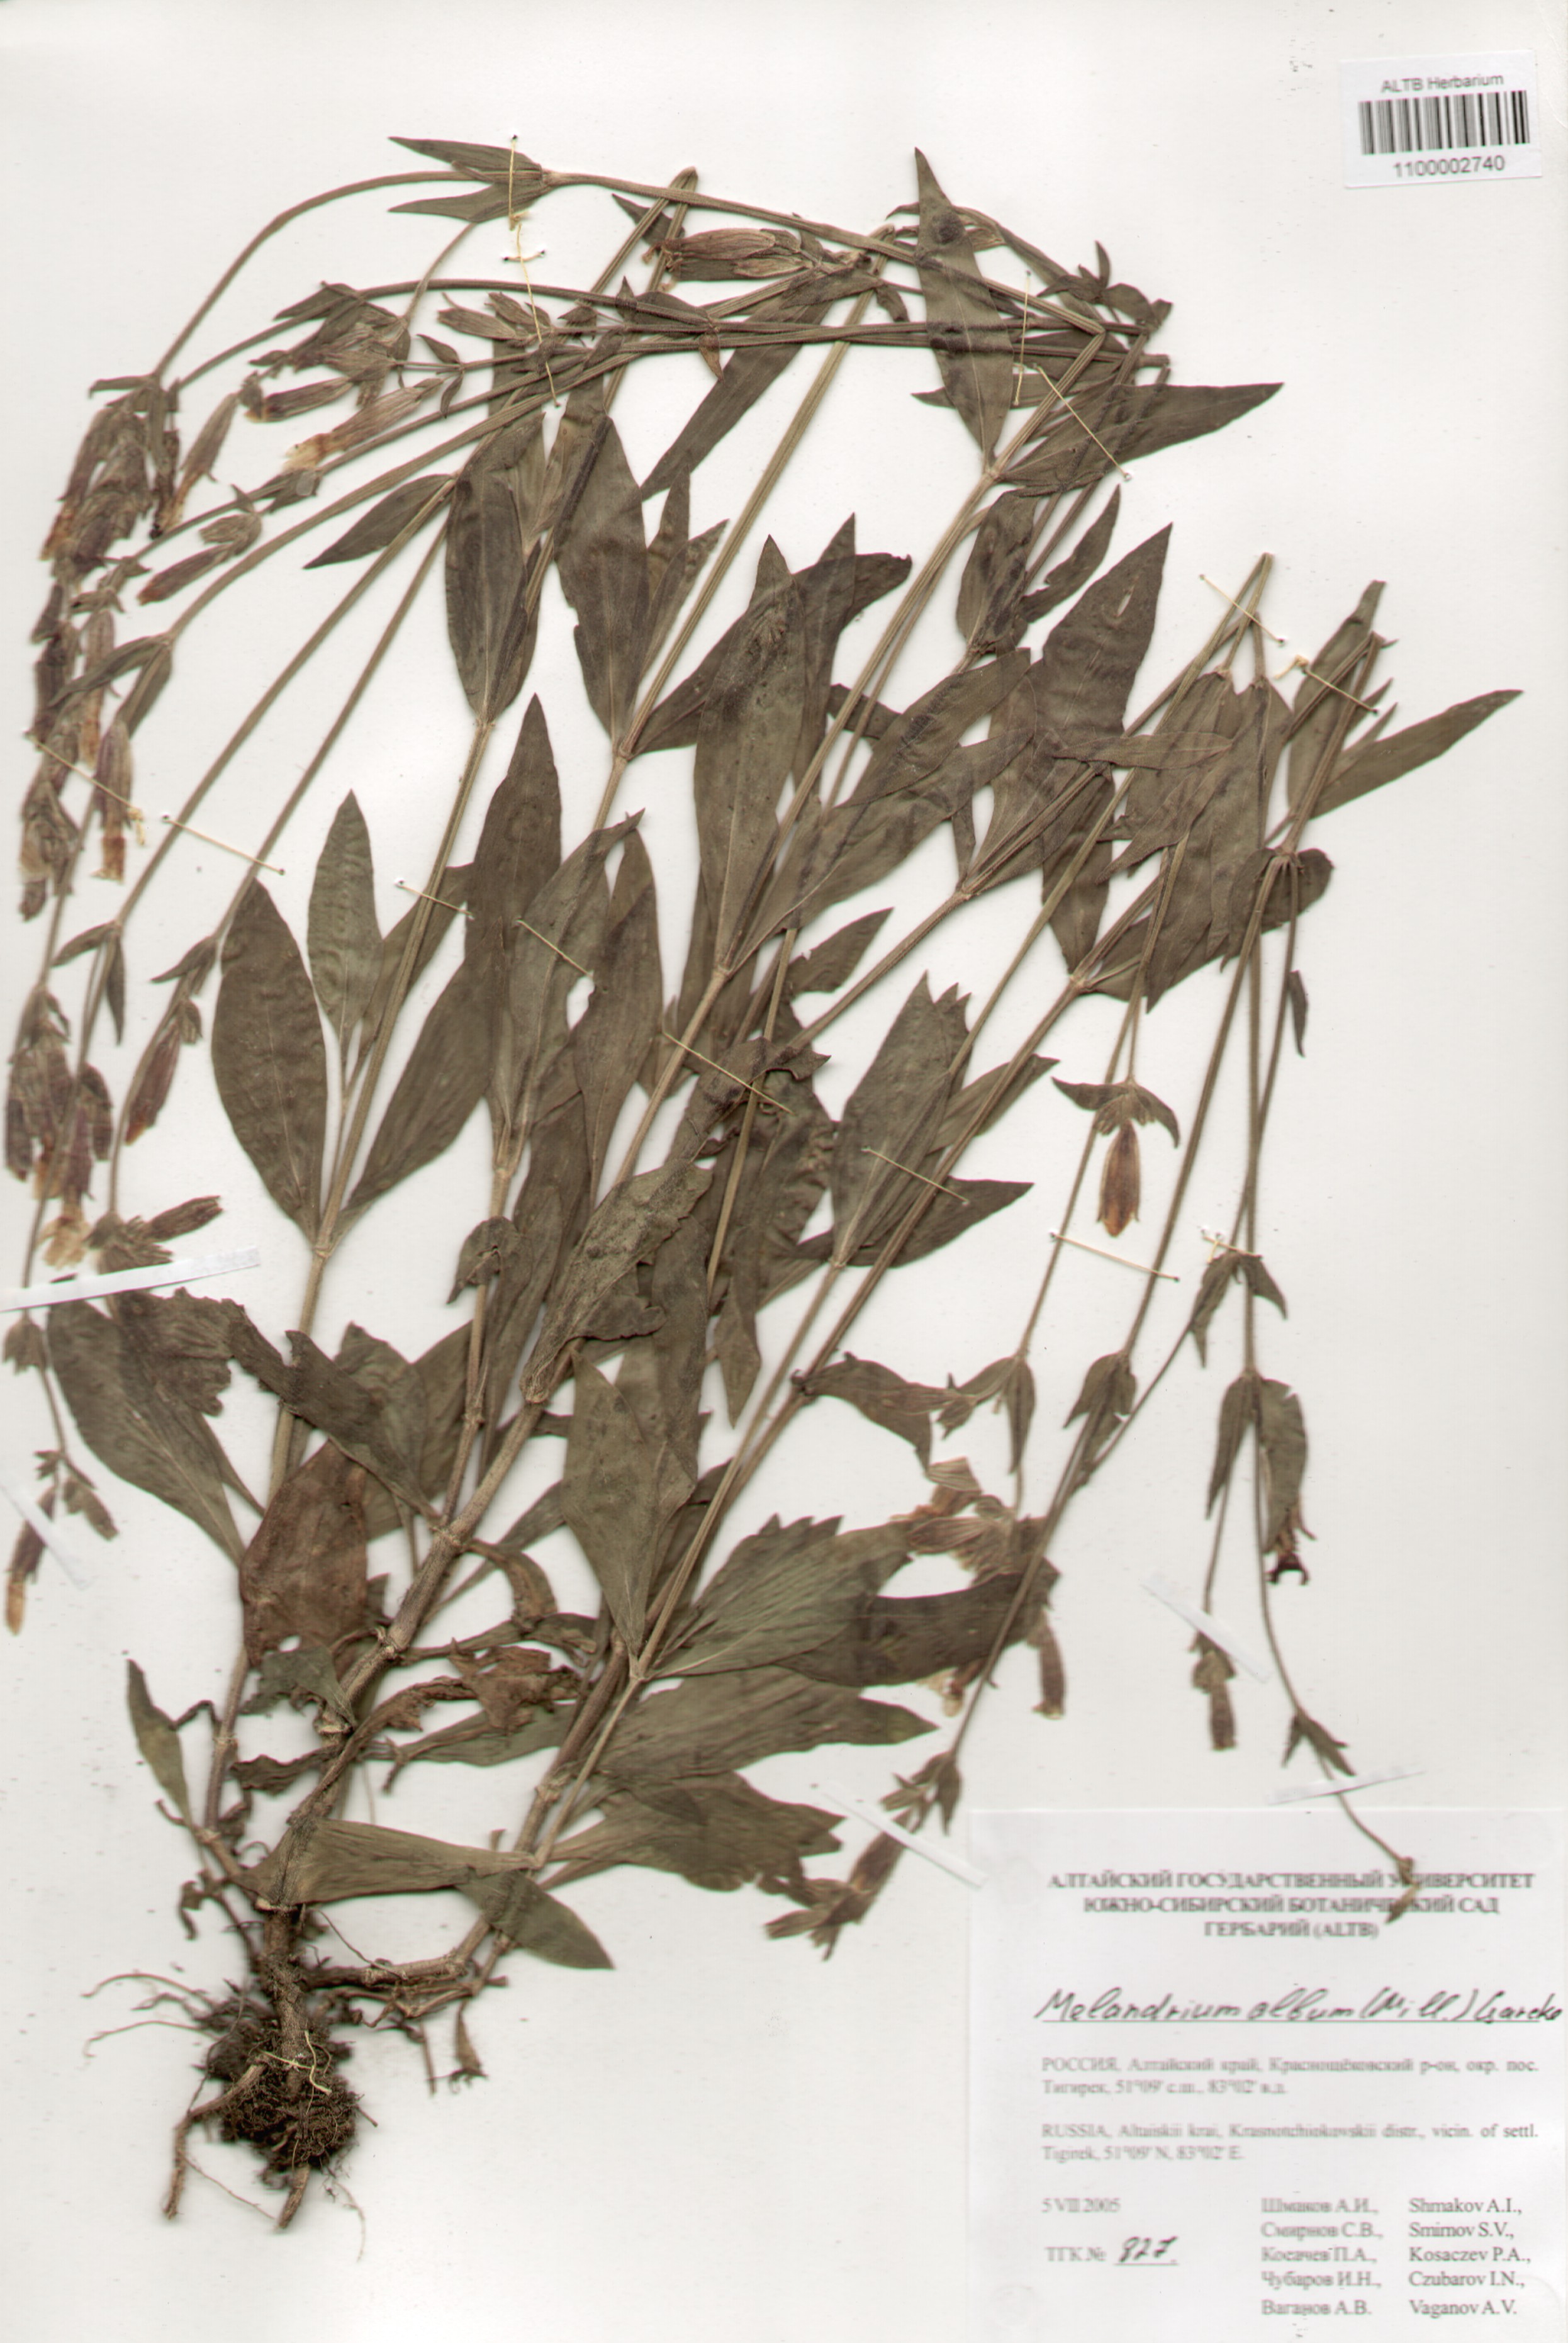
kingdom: Plantae
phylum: Tracheophyta
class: Magnoliopsida
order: Caryophyllales
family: Caryophyllaceae
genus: Silene
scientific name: Silene latifolia
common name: White campion
